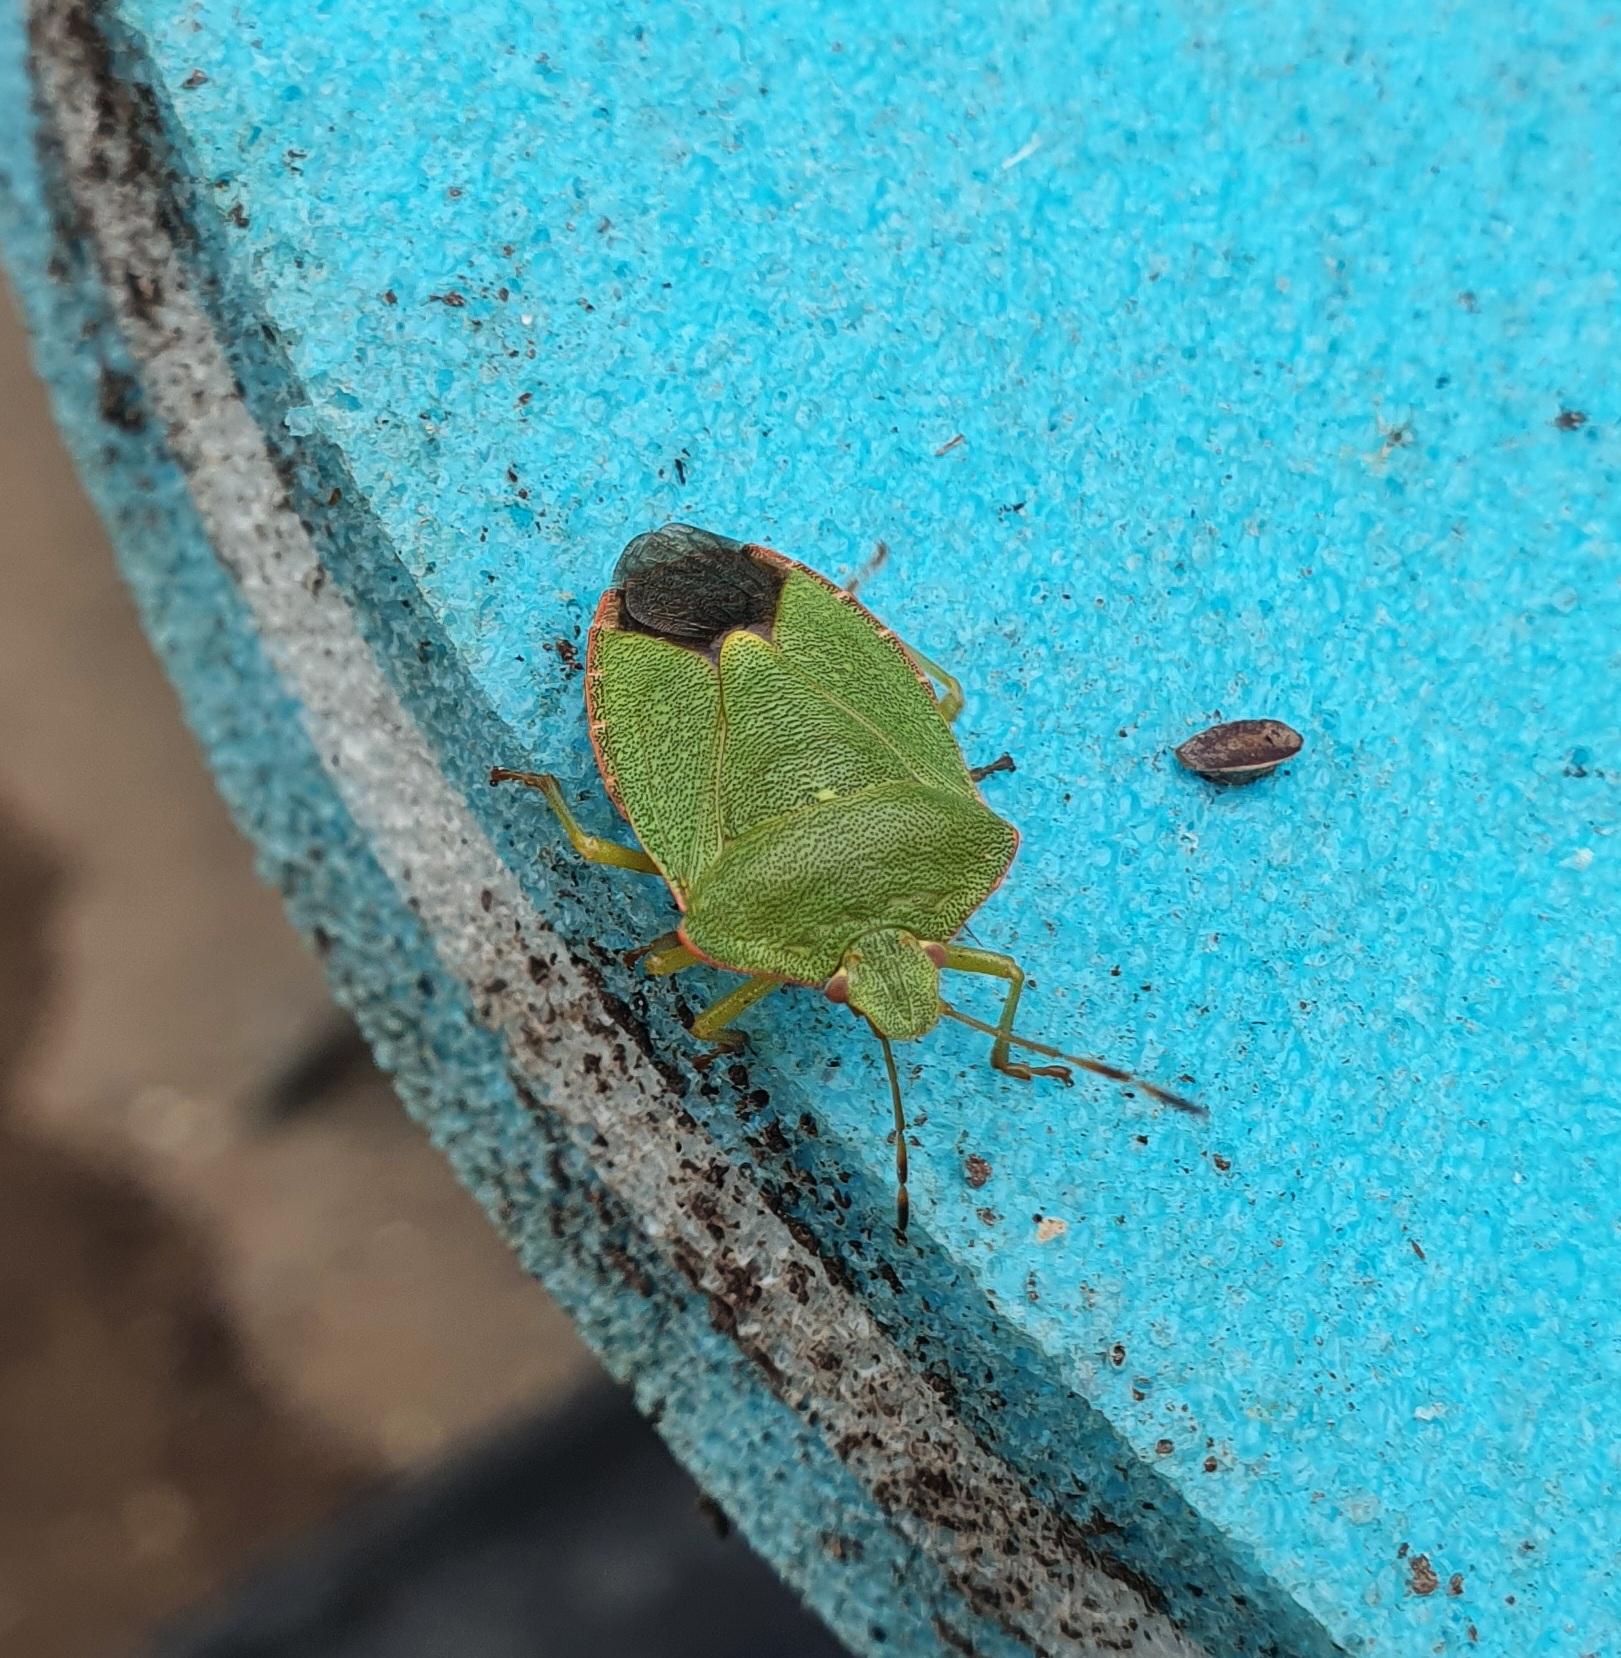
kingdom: Animalia
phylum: Arthropoda
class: Insecta
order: Hemiptera
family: Pentatomidae
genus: Palomena
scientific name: Palomena prasina
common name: Grøn bredtæge
